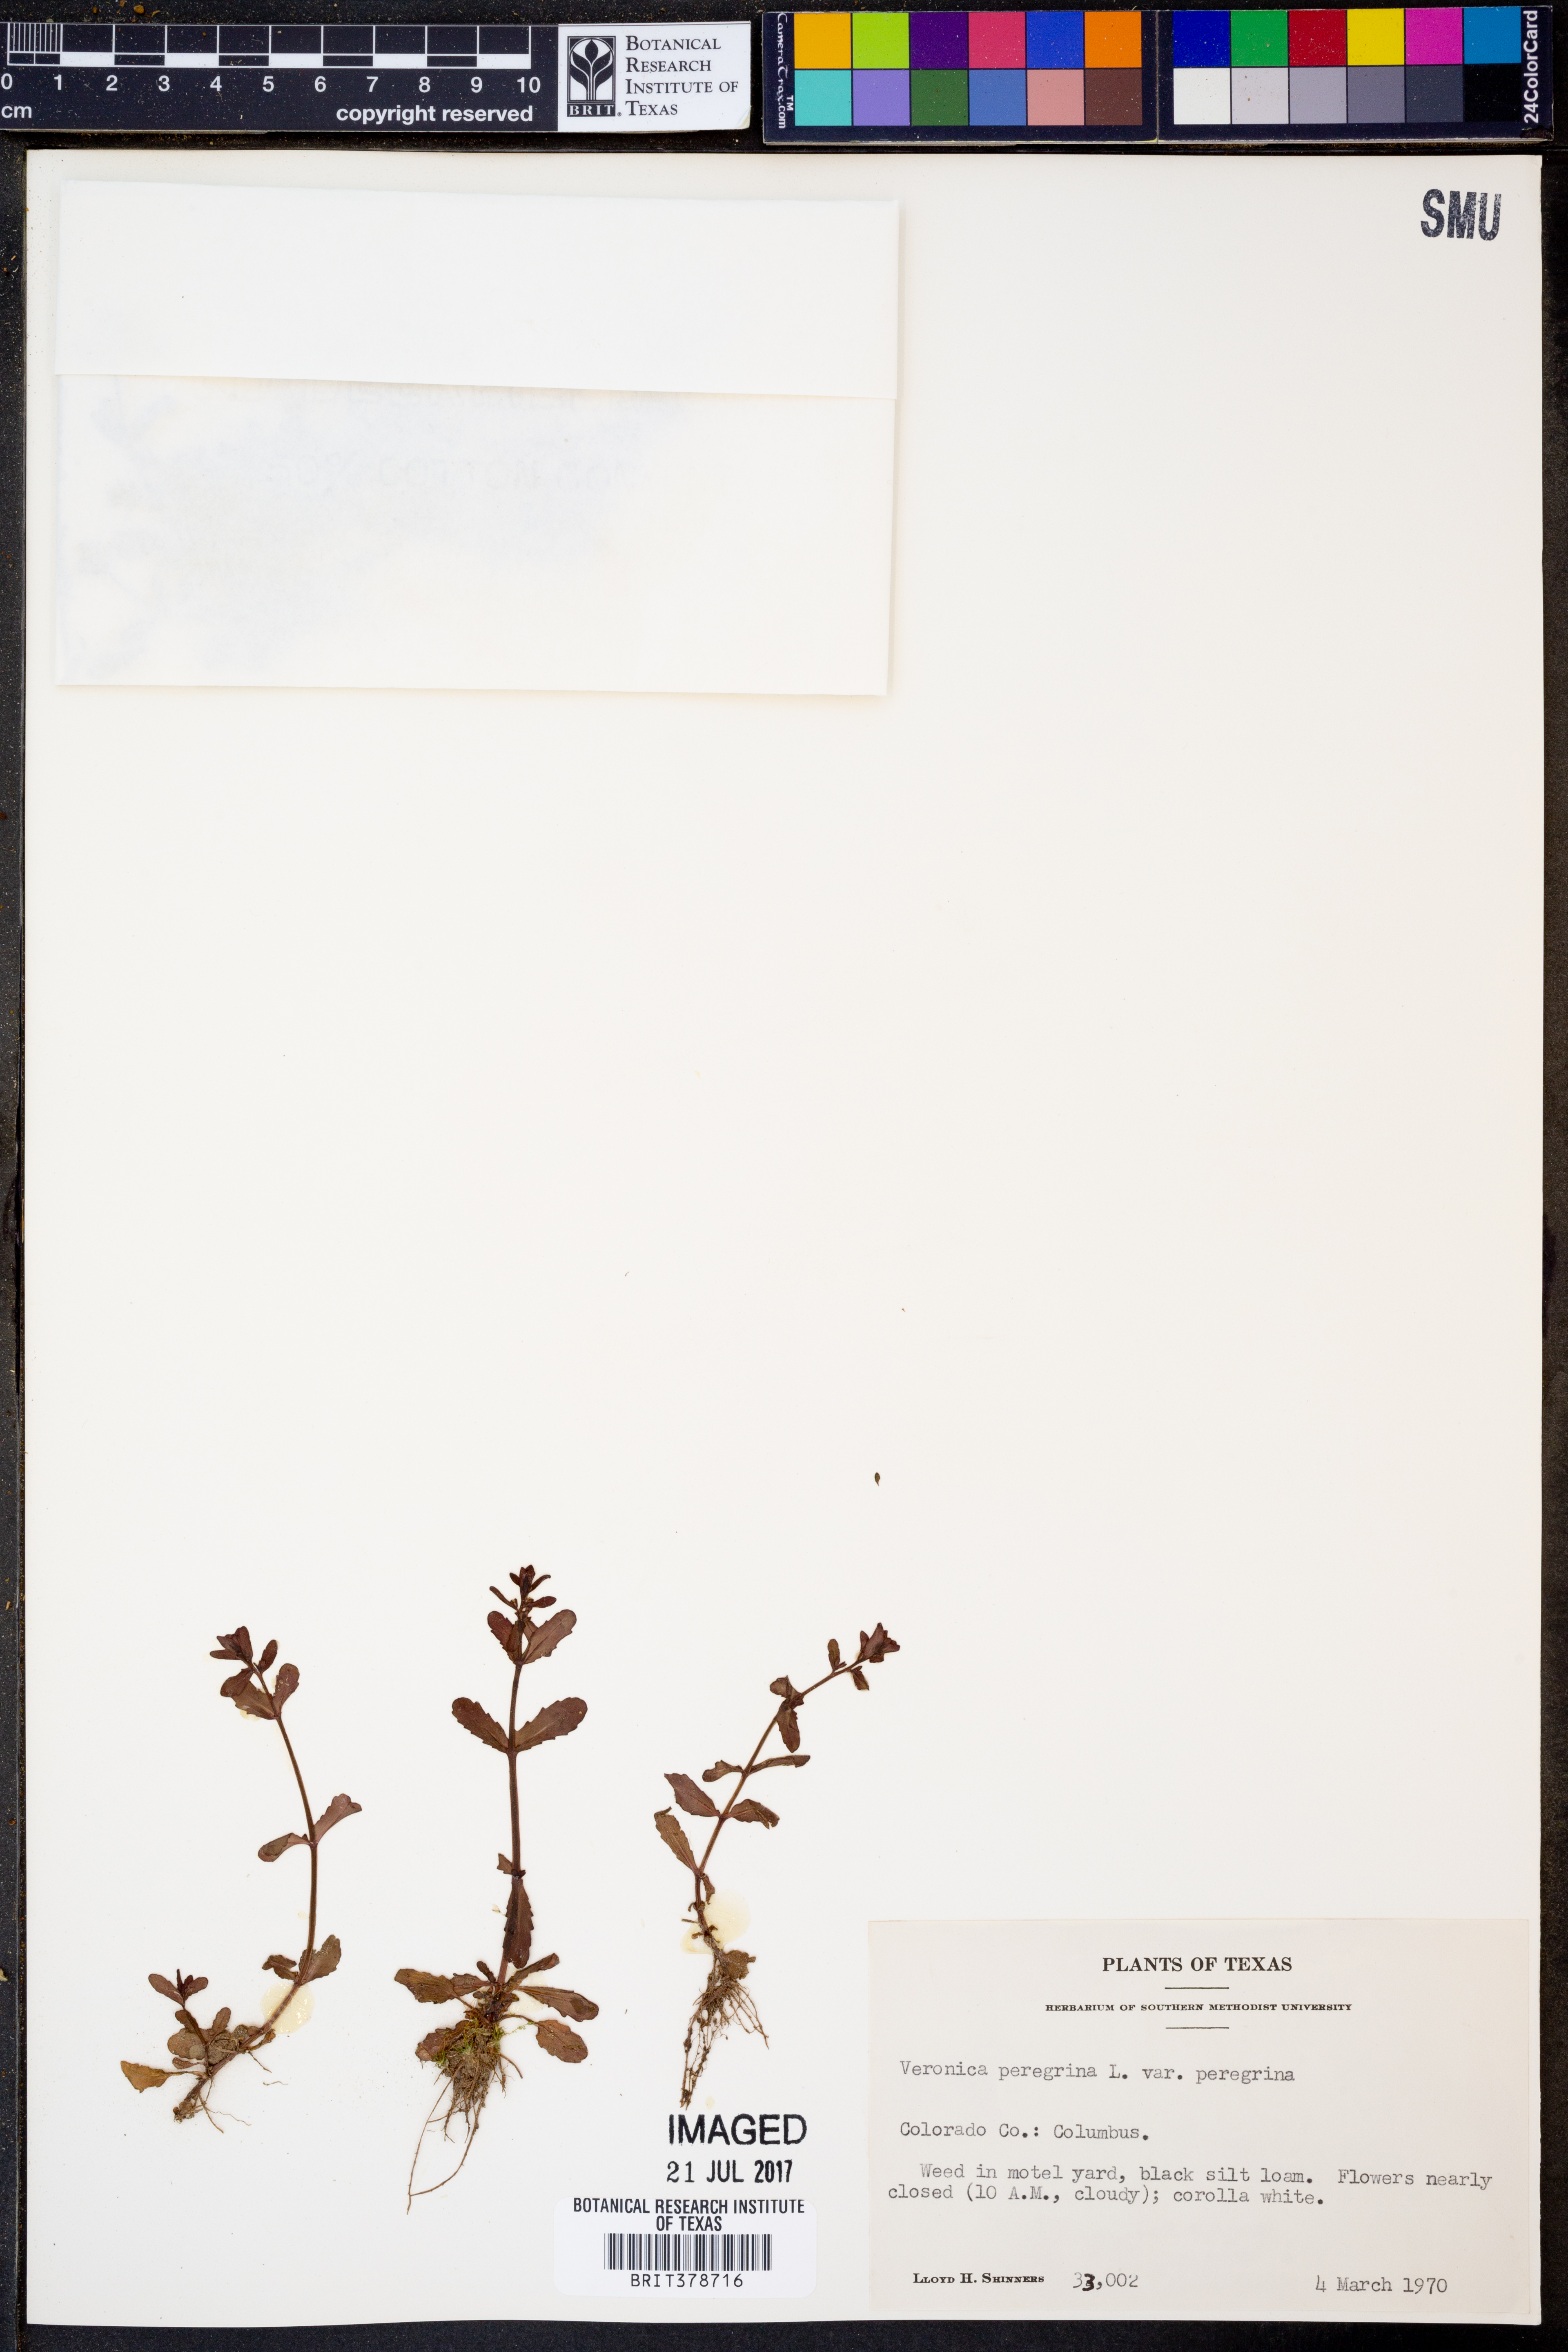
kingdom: Plantae
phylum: Tracheophyta
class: Magnoliopsida
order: Lamiales
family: Plantaginaceae
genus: Veronica
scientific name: Veronica peregrina
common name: Neckweed
